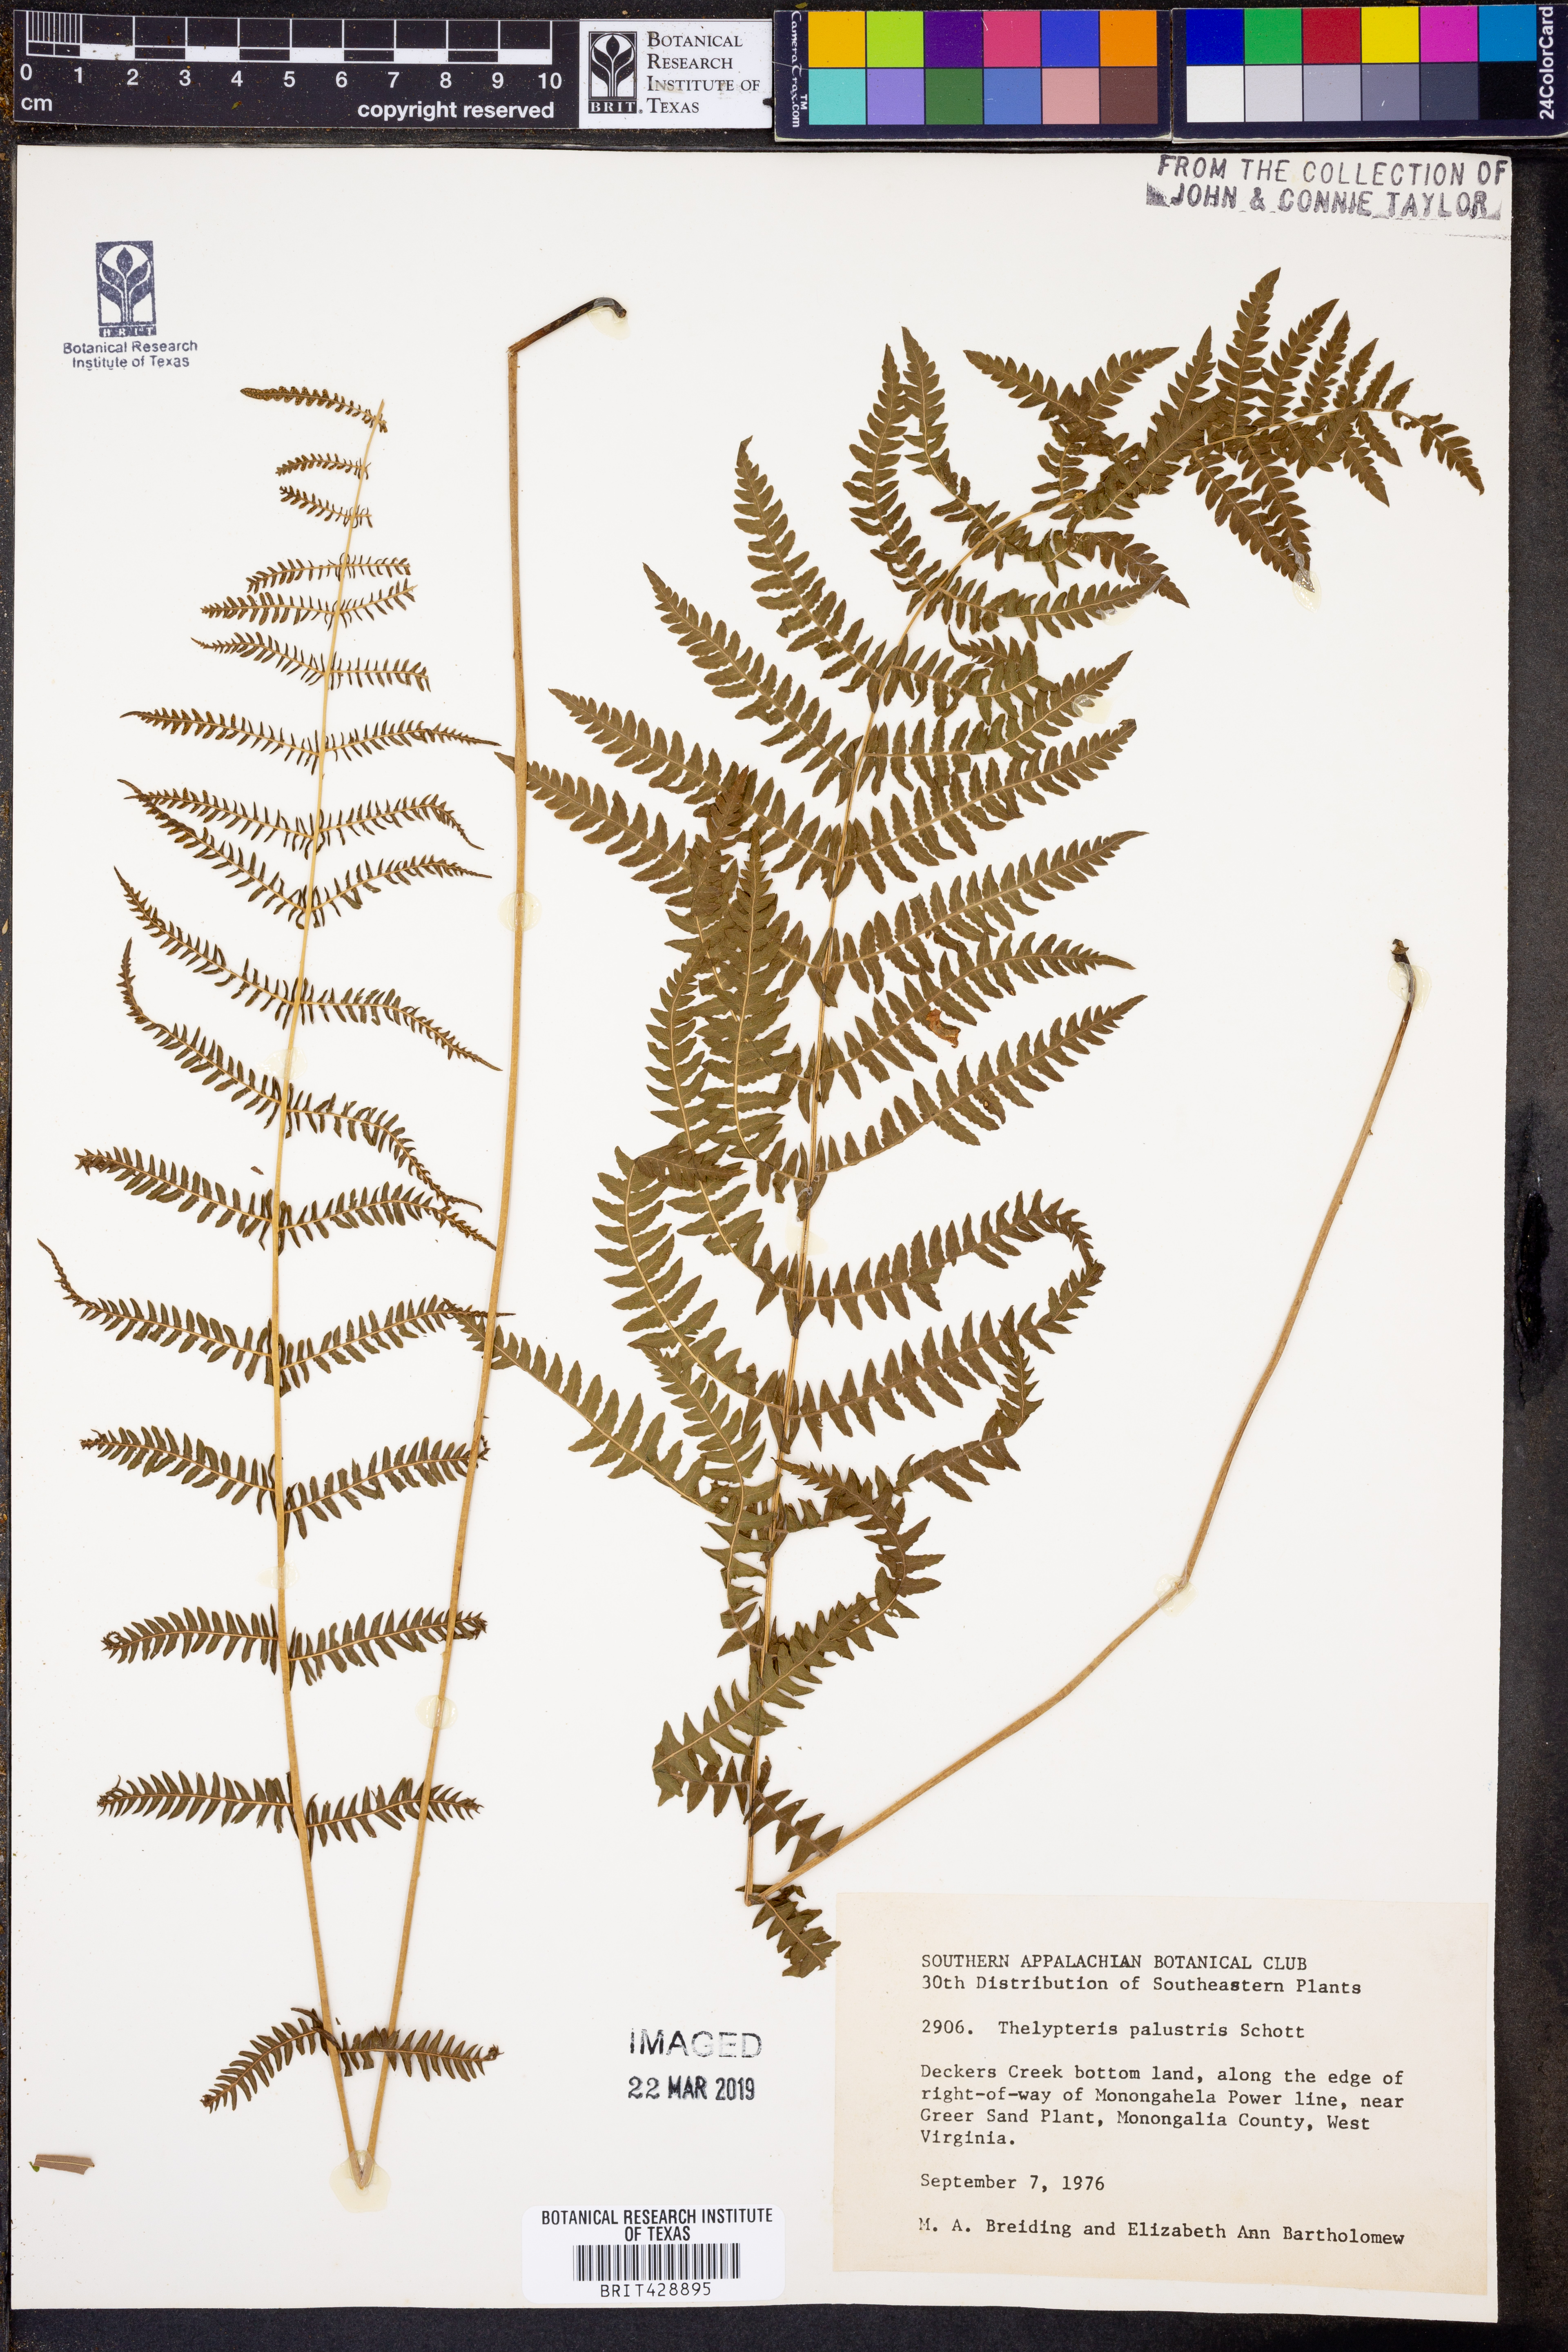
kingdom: Plantae
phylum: Tracheophyta
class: Polypodiopsida
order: Polypodiales
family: Thelypteridaceae
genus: Thelypteris
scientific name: Thelypteris palustris
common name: Marsh fern
